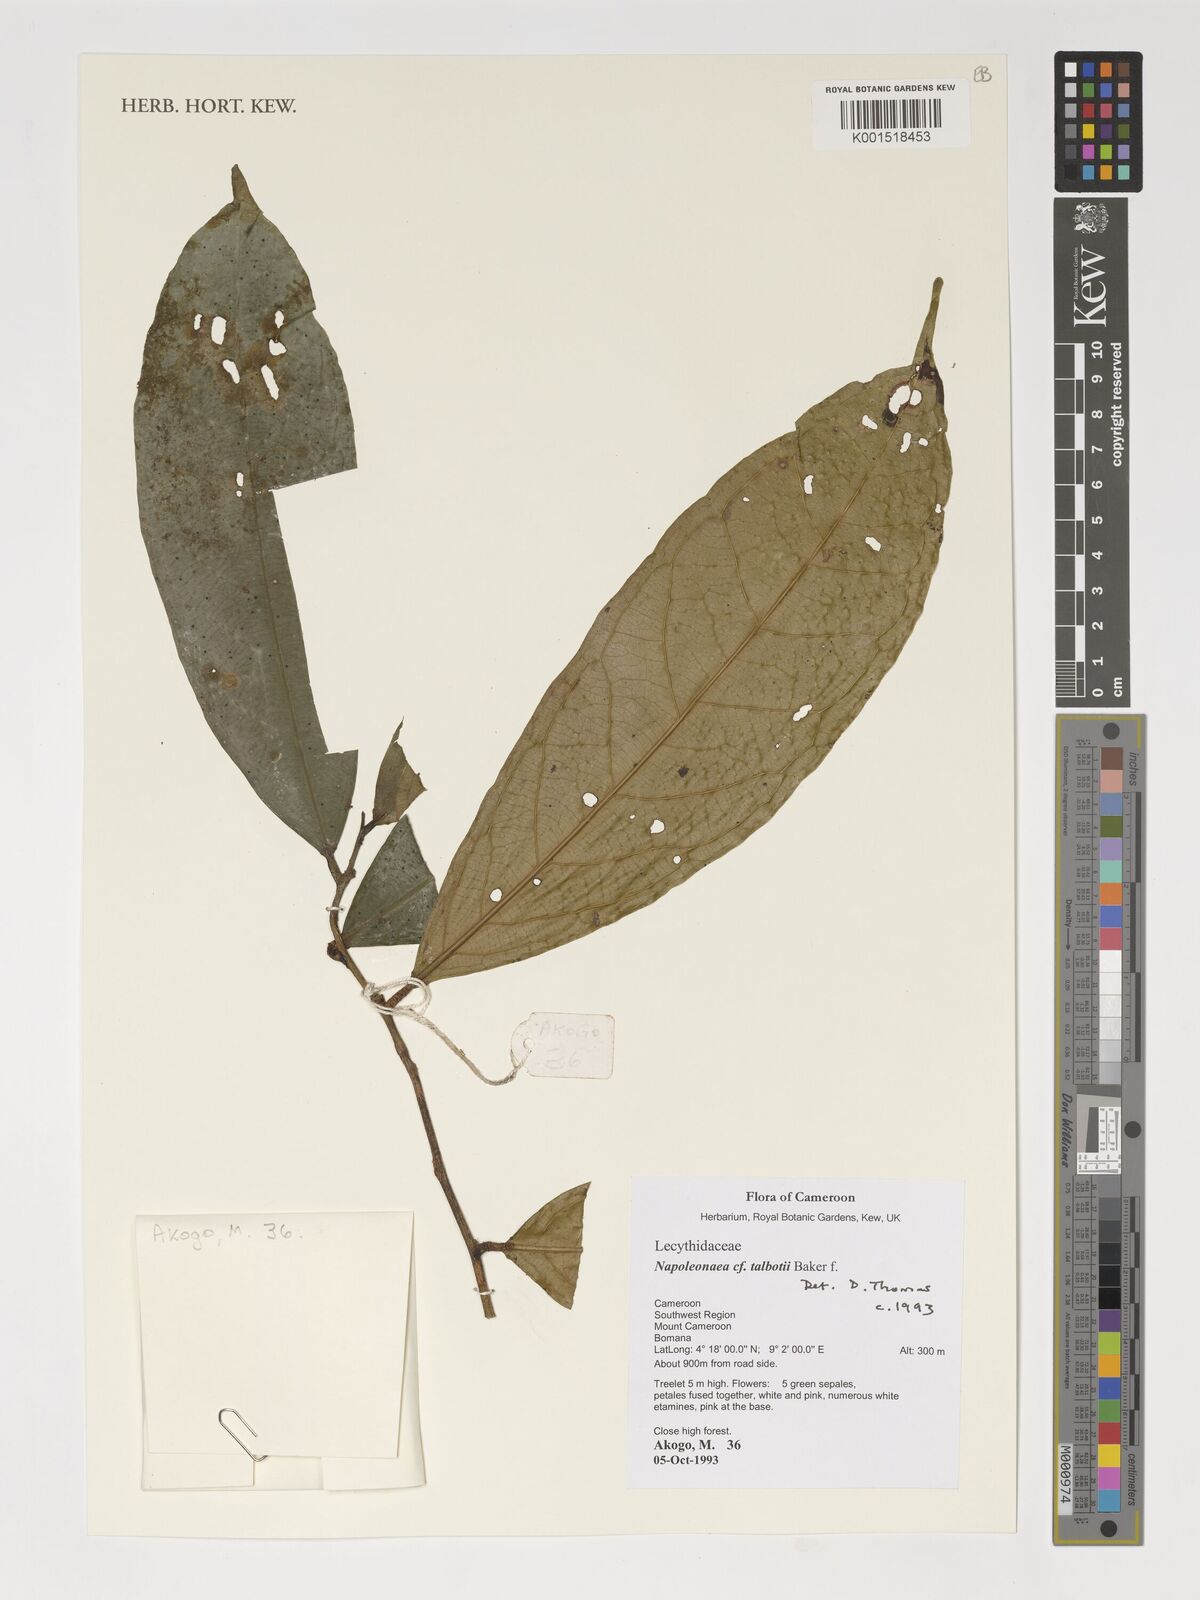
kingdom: Plantae
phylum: Tracheophyta
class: Magnoliopsida
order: Ericales
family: Lecythidaceae
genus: Napoleonaea
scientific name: Napoleonaea talbotii
